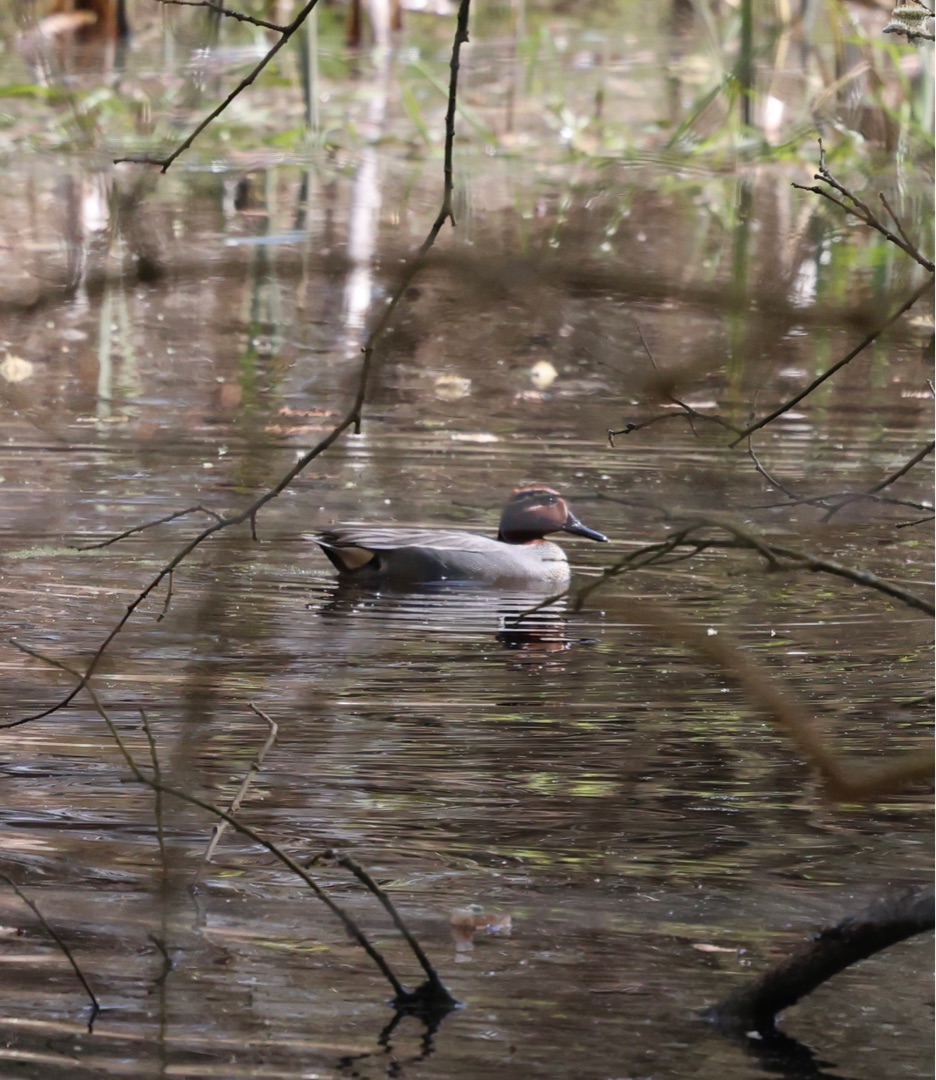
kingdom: Animalia
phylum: Chordata
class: Aves
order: Anseriformes
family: Anatidae
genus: Anas
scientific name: Anas crecca
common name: Krikand
